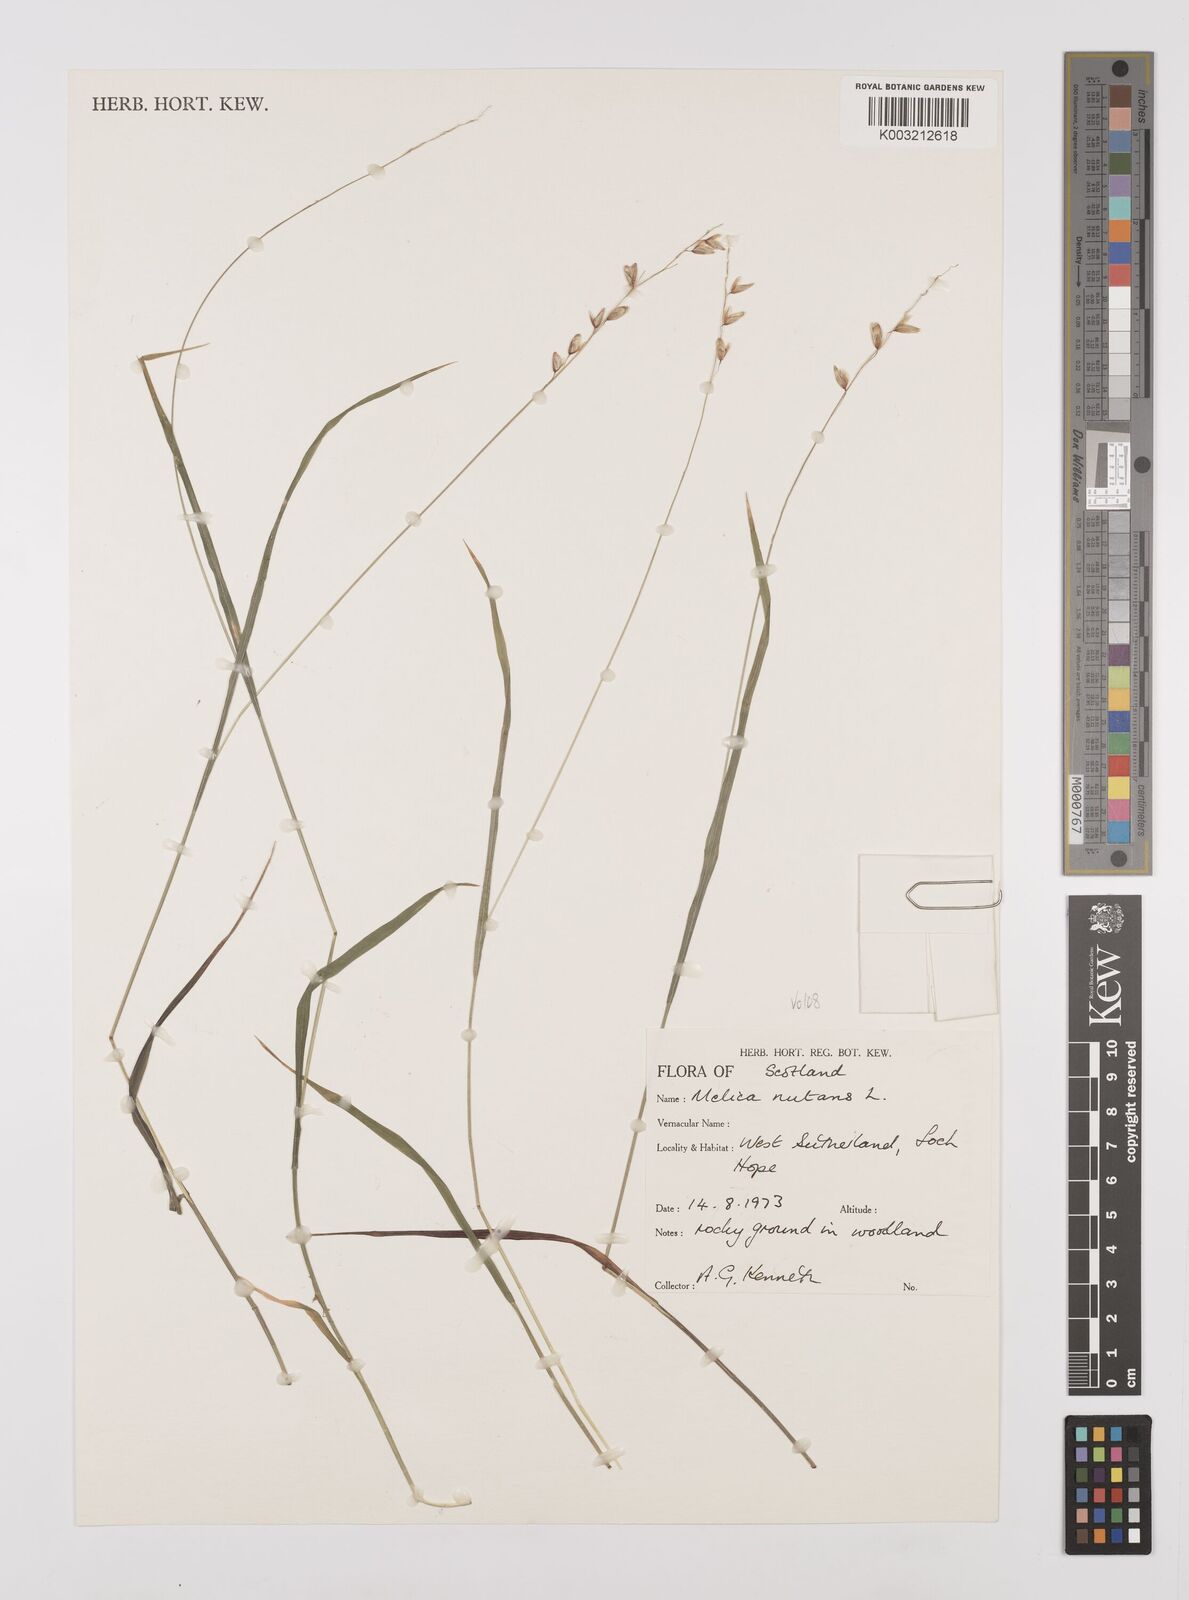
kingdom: Plantae
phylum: Tracheophyta
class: Liliopsida
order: Poales
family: Poaceae
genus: Melica
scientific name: Melica
